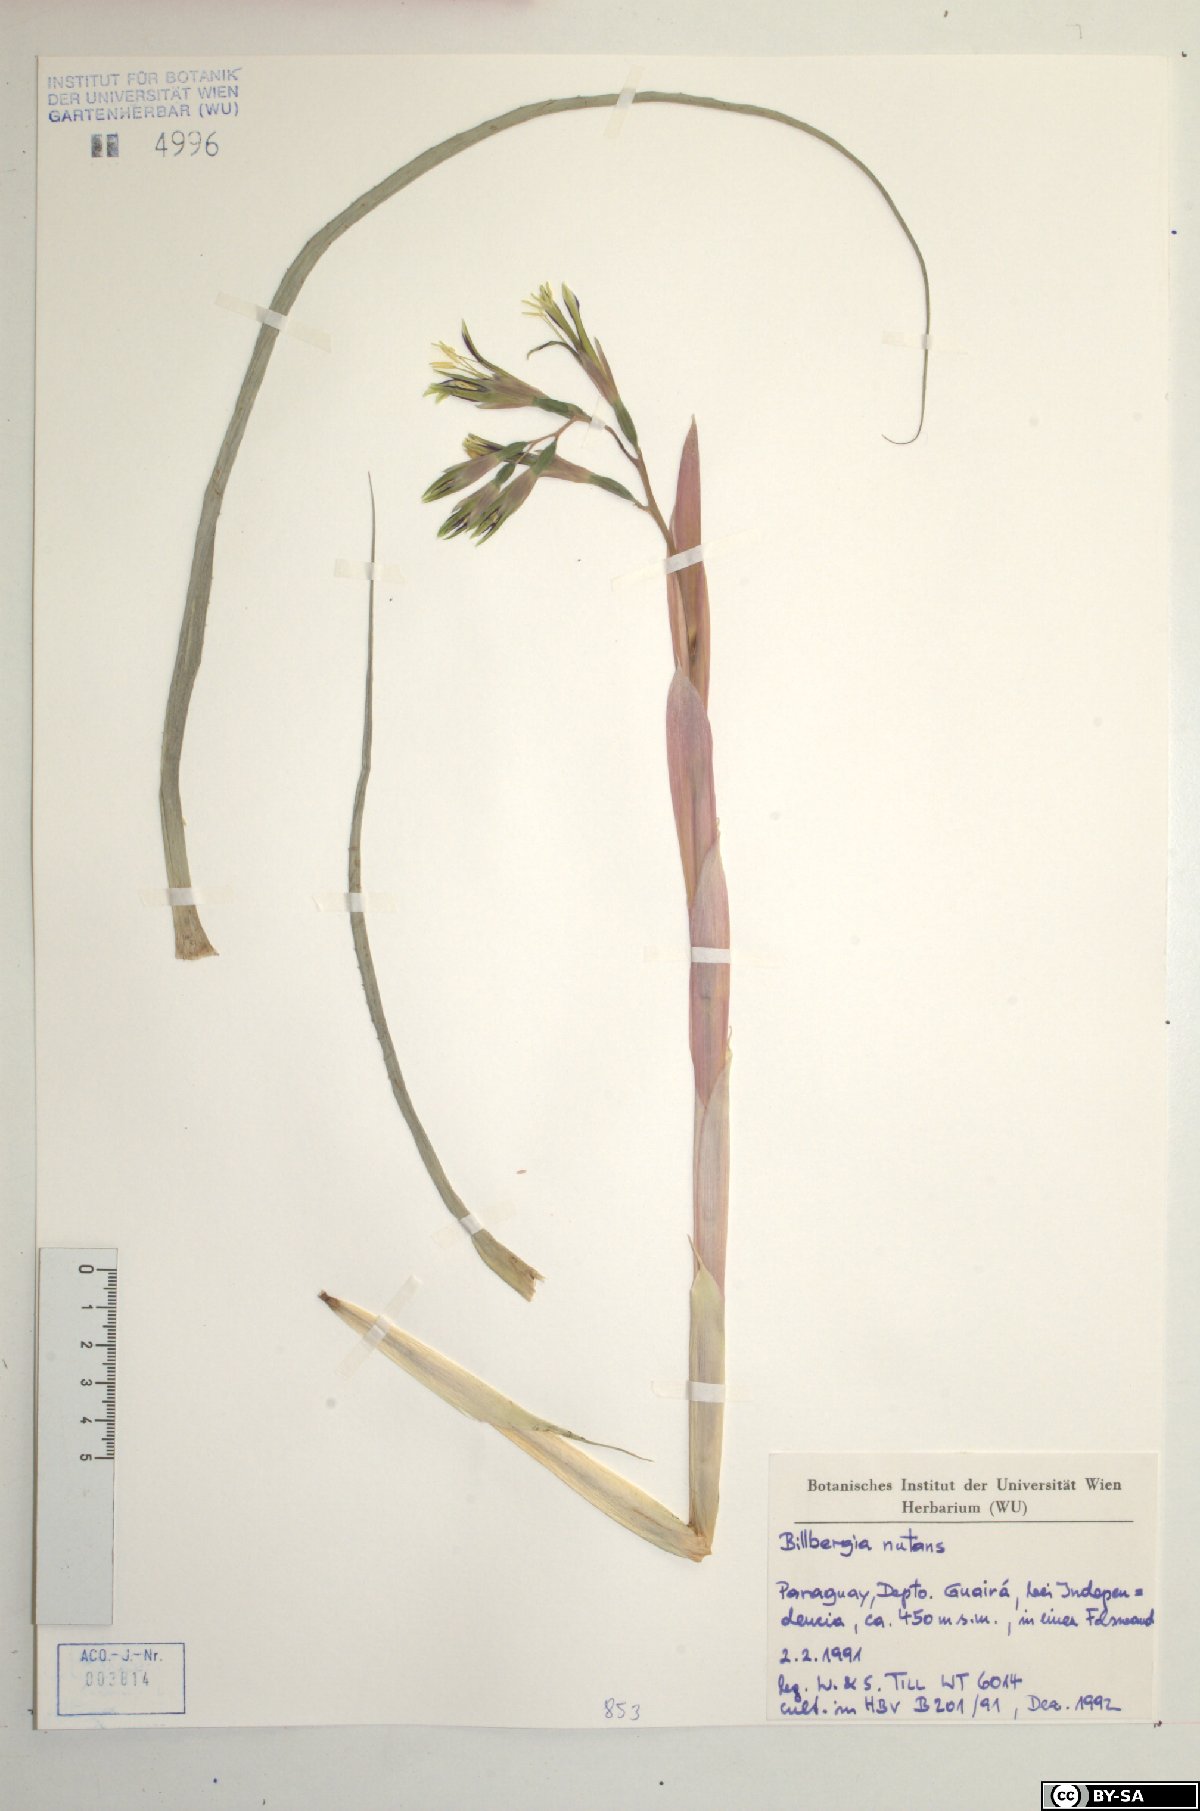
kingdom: Plantae
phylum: Tracheophyta
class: Liliopsida
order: Poales
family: Bromeliaceae
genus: Billbergia
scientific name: Billbergia nutans
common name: Friendship-plant
